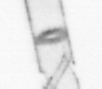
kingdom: Chromista
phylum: Ochrophyta
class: Bacillariophyceae
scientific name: Bacillariophyceae
